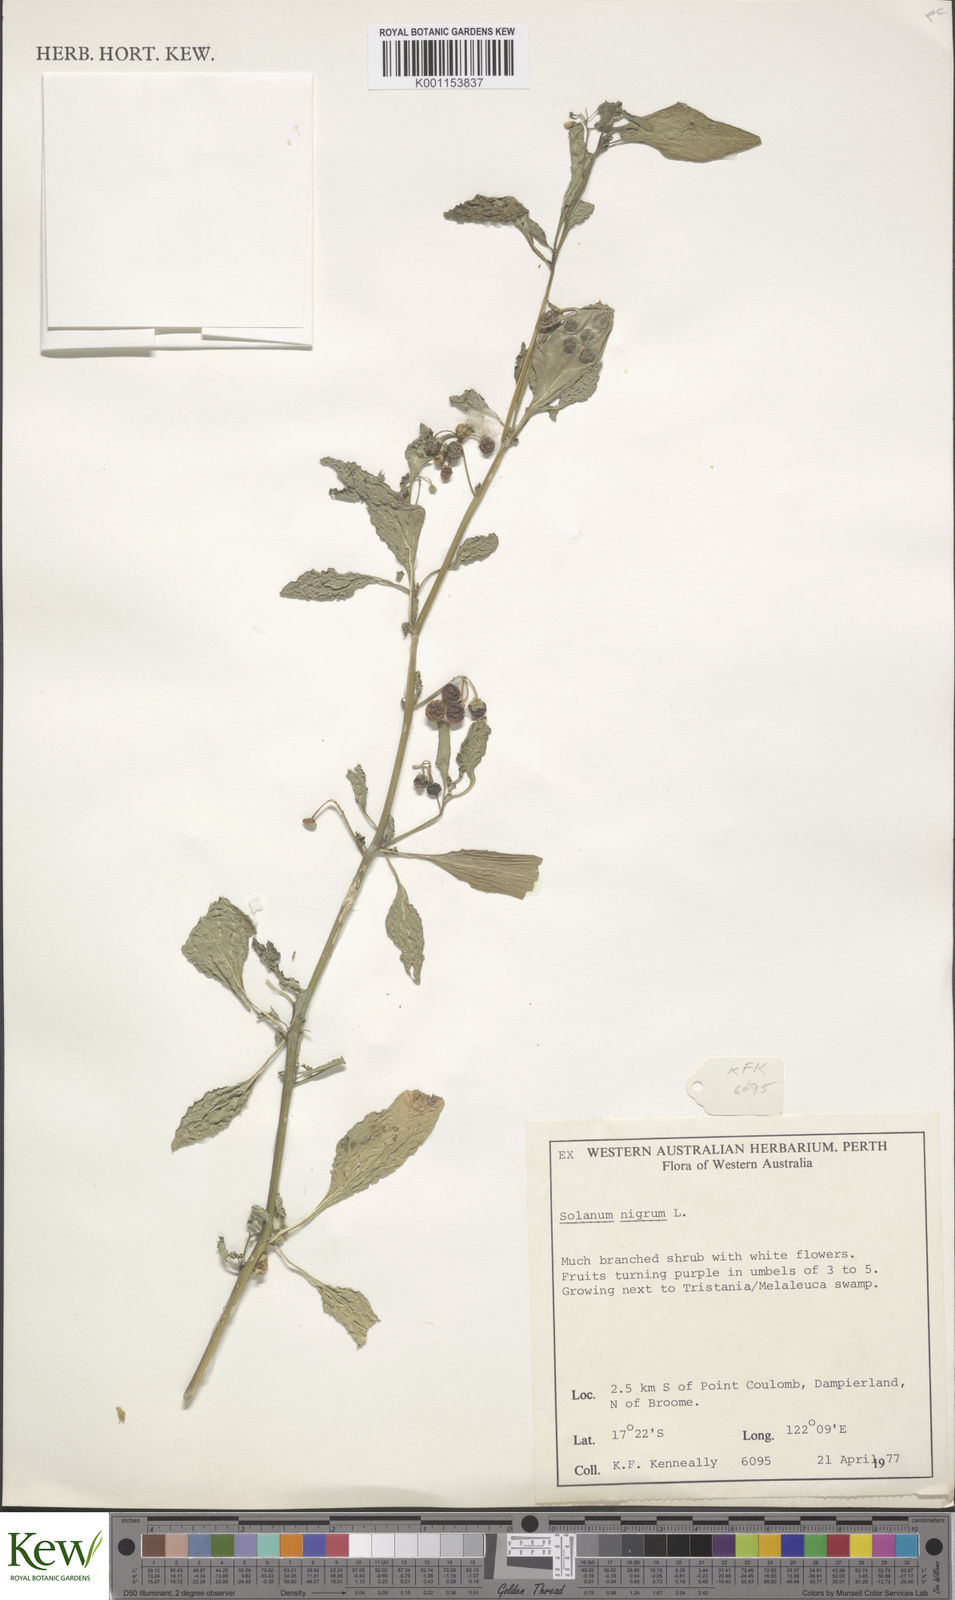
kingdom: Plantae
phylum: Tracheophyta
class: Magnoliopsida
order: Solanales
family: Solanaceae
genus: Solanum
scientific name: Solanum americanum
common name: American black nightshade
